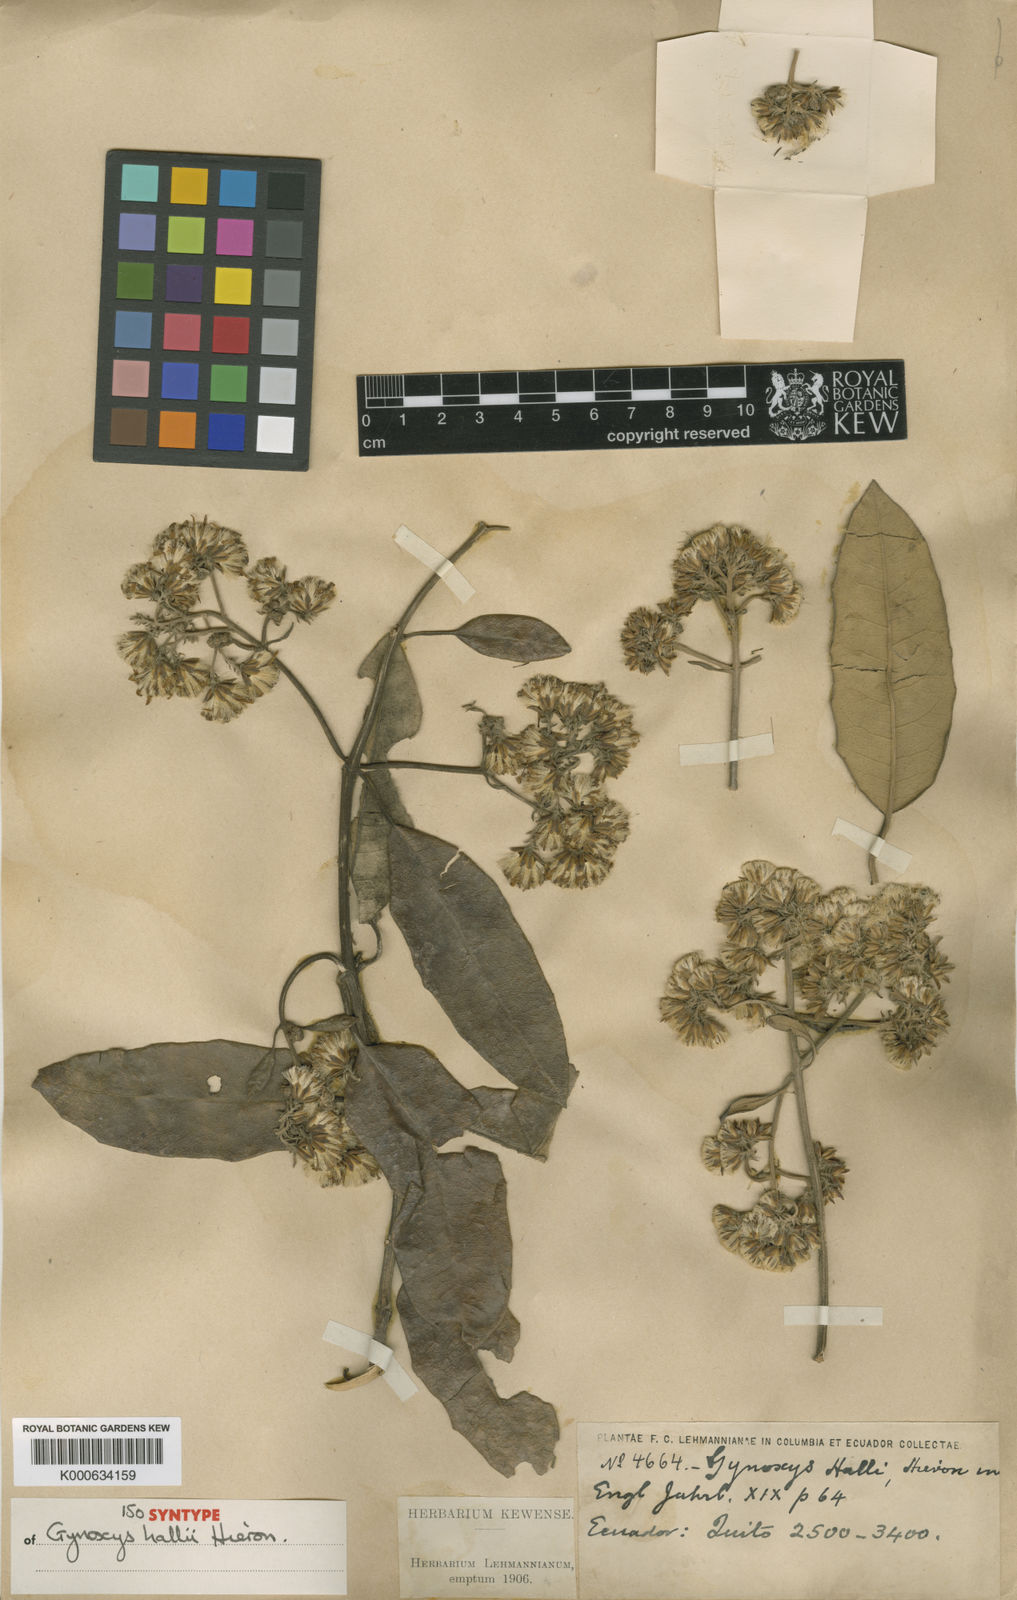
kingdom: Plantae
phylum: Tracheophyta
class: Magnoliopsida
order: Asterales
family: Asteraceae
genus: Gynoxys
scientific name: Gynoxys hallii
